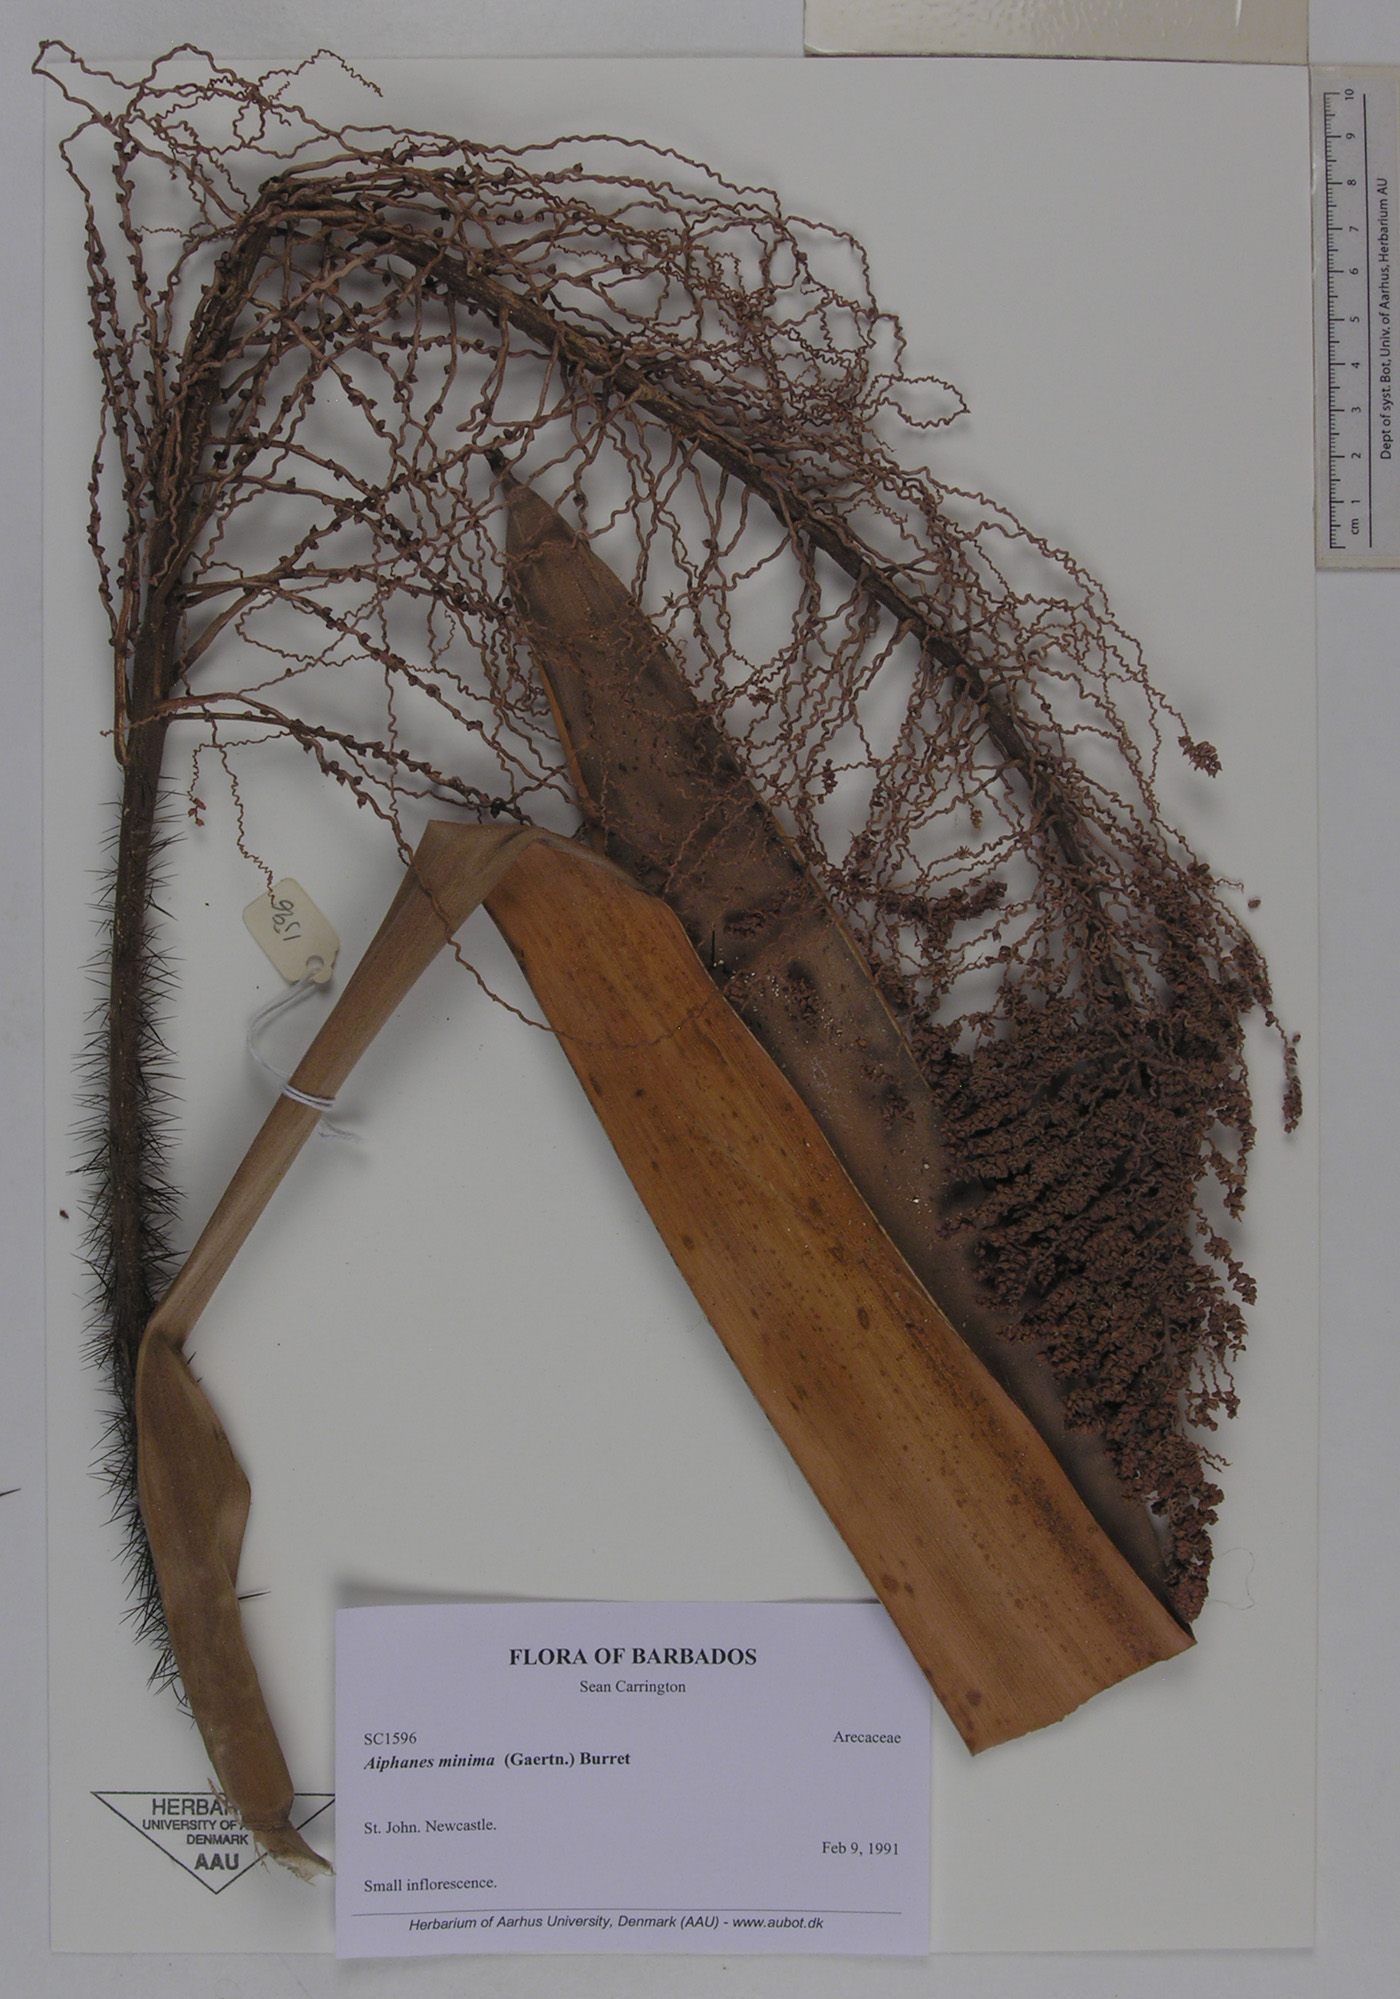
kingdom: Plantae
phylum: Tracheophyta
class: Liliopsida
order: Arecales
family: Arecaceae
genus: Aiphanes
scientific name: Aiphanes minima
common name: Grigri
